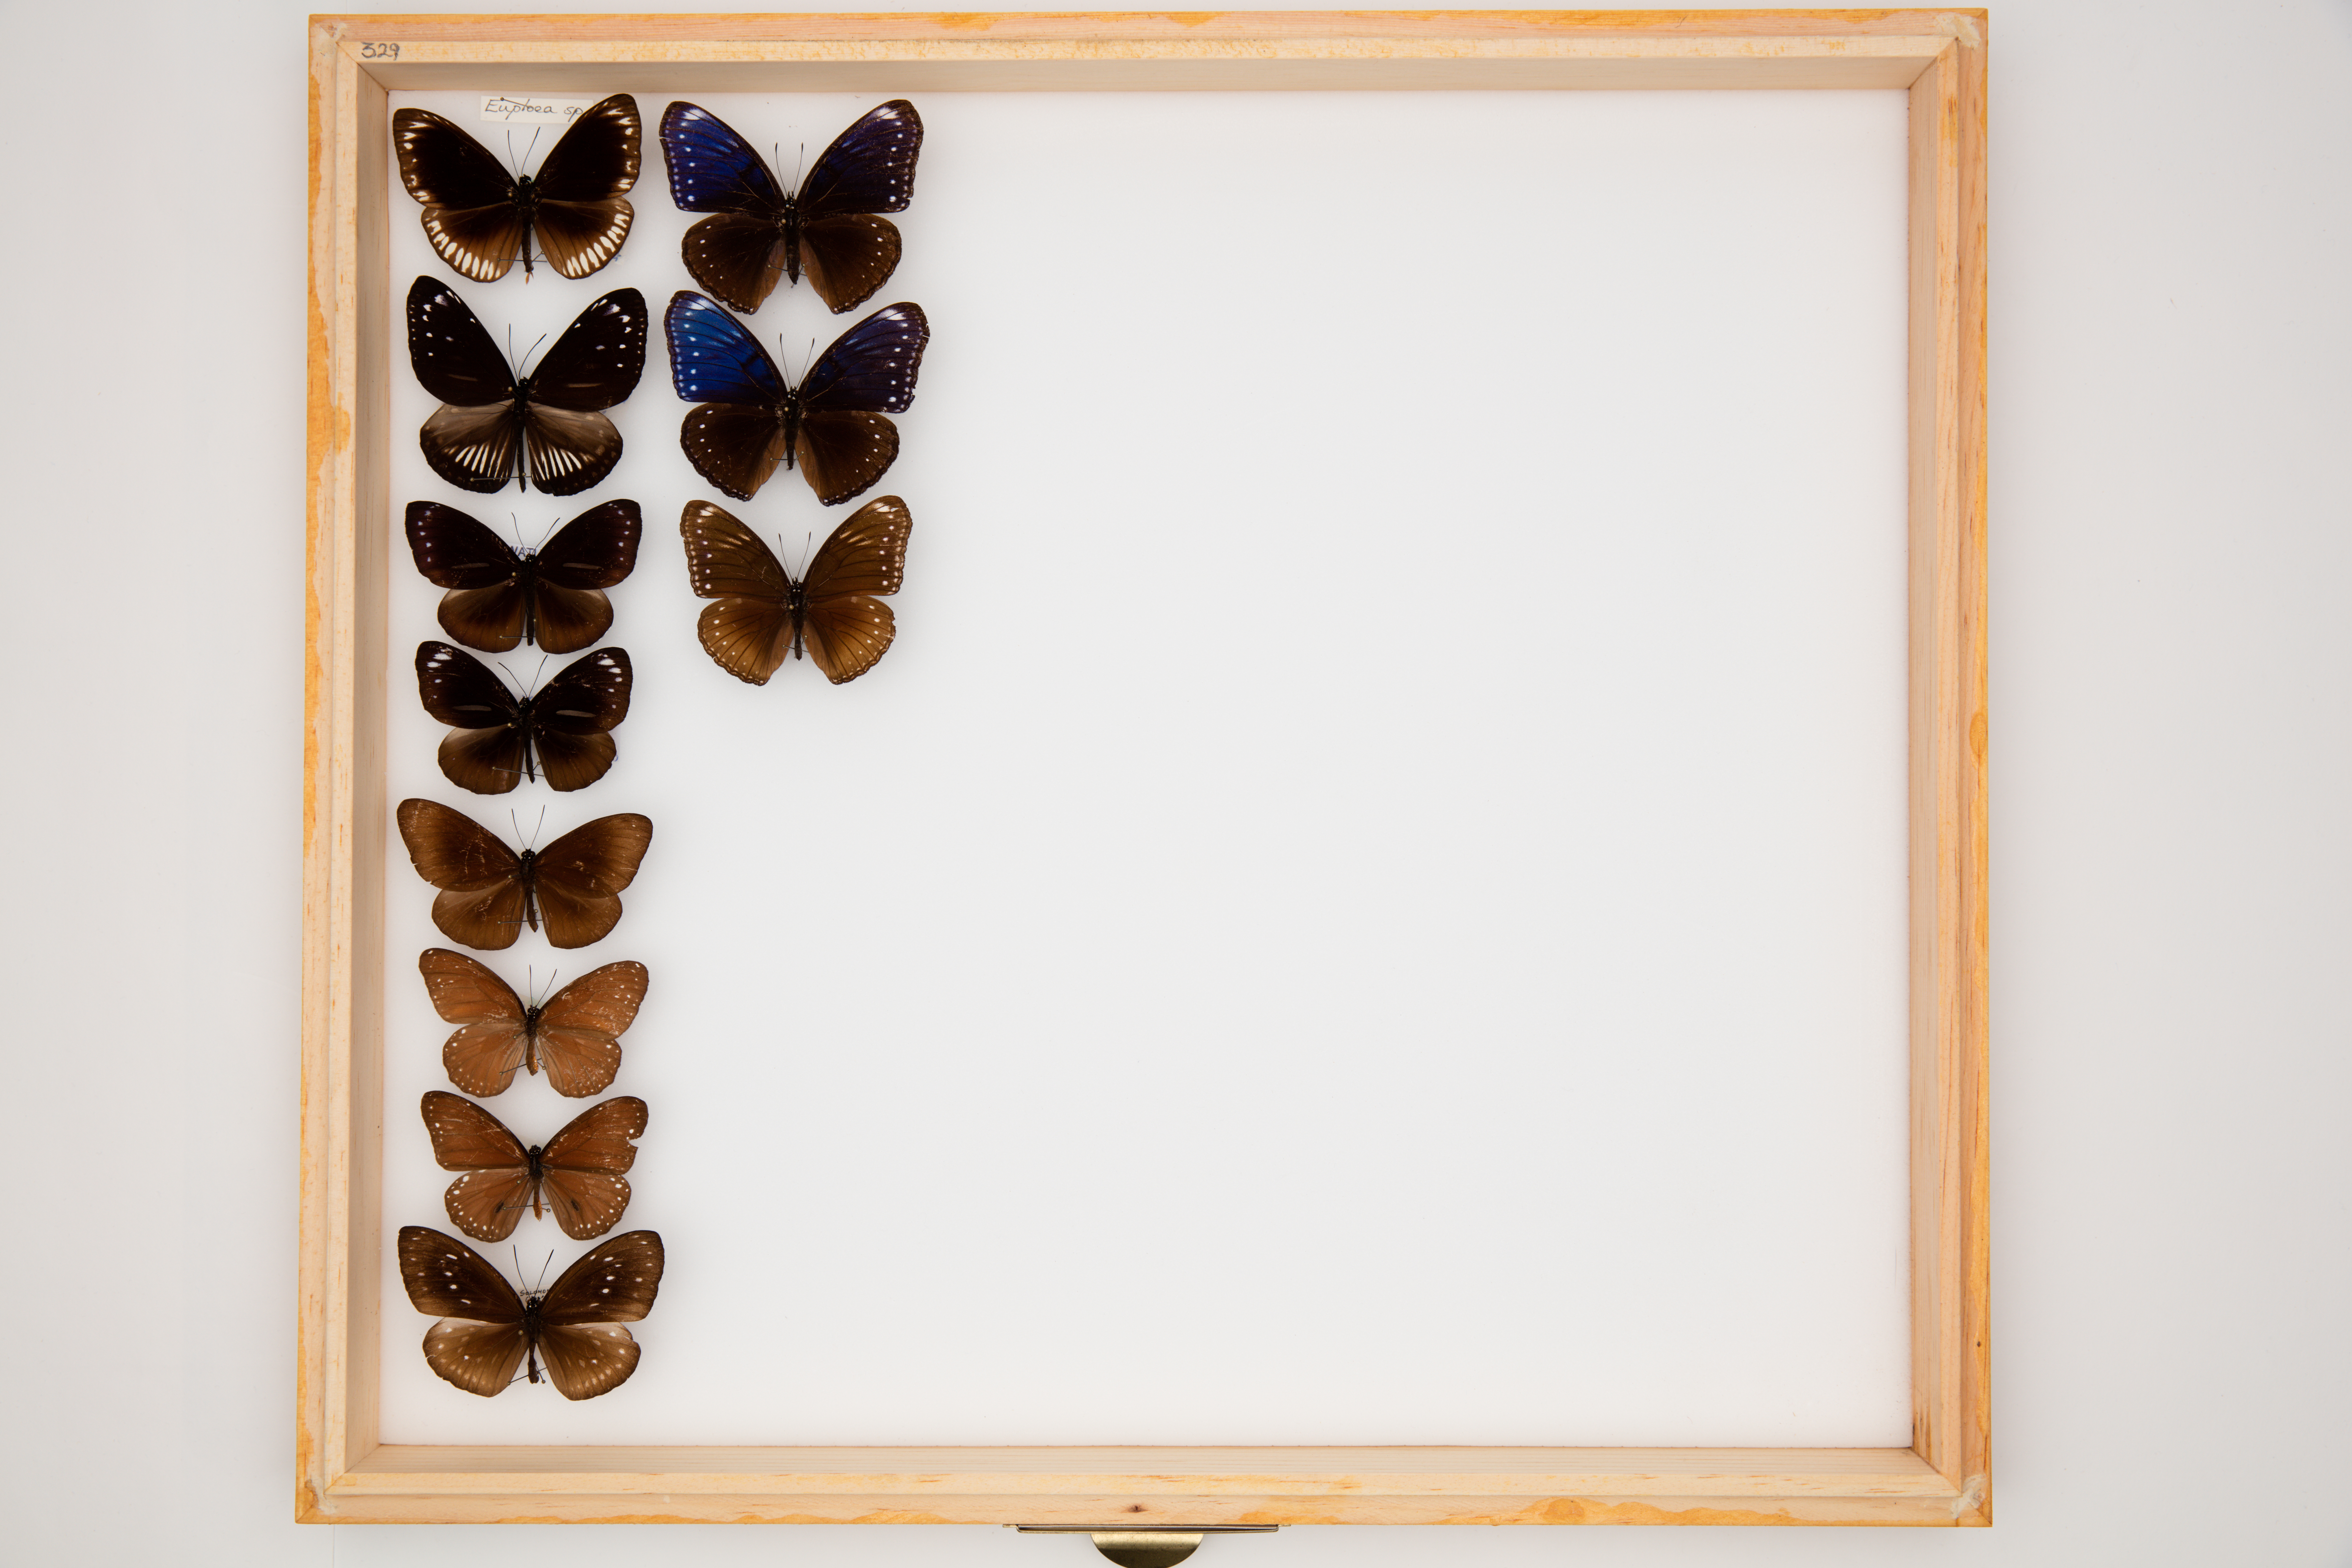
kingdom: Animalia
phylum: Arthropoda
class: Insecta
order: Lepidoptera
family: Nymphalidae
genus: Euploea
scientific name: Euploea
